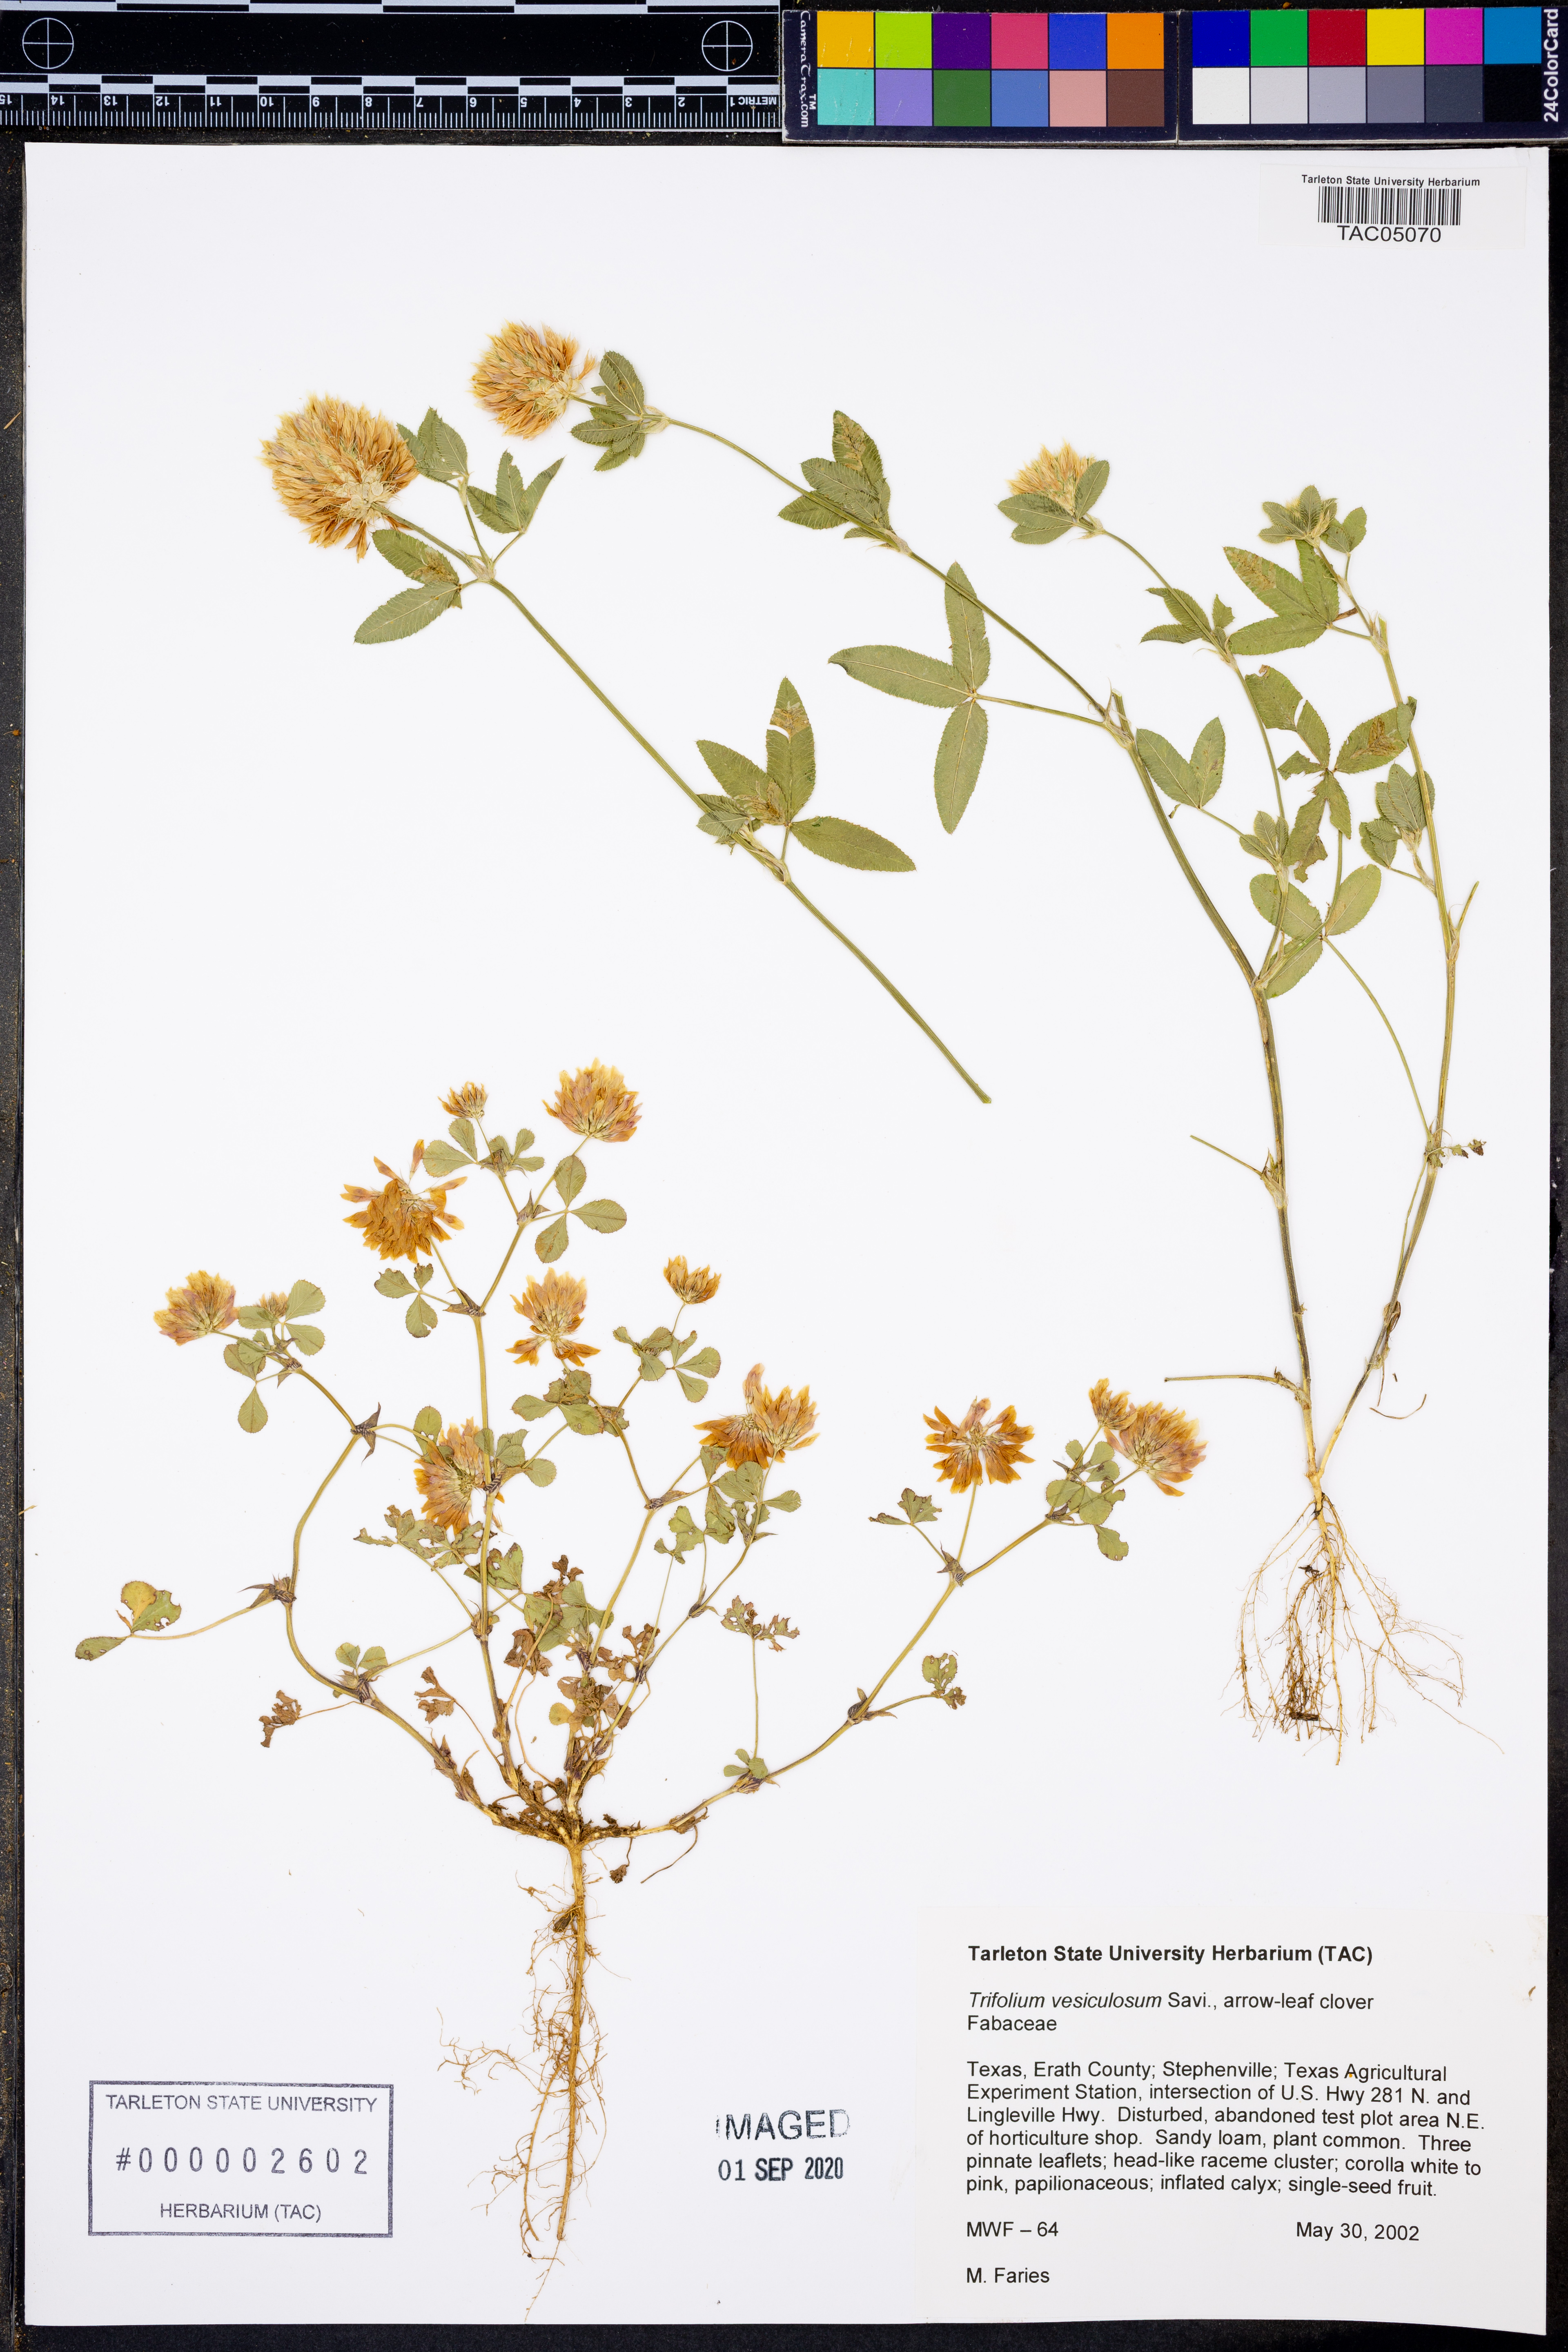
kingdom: Plantae
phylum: Tracheophyta
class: Magnoliopsida
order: Fabales
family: Fabaceae
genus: Trifolium
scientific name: Trifolium vesiculosum
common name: Arrowleaf clover
